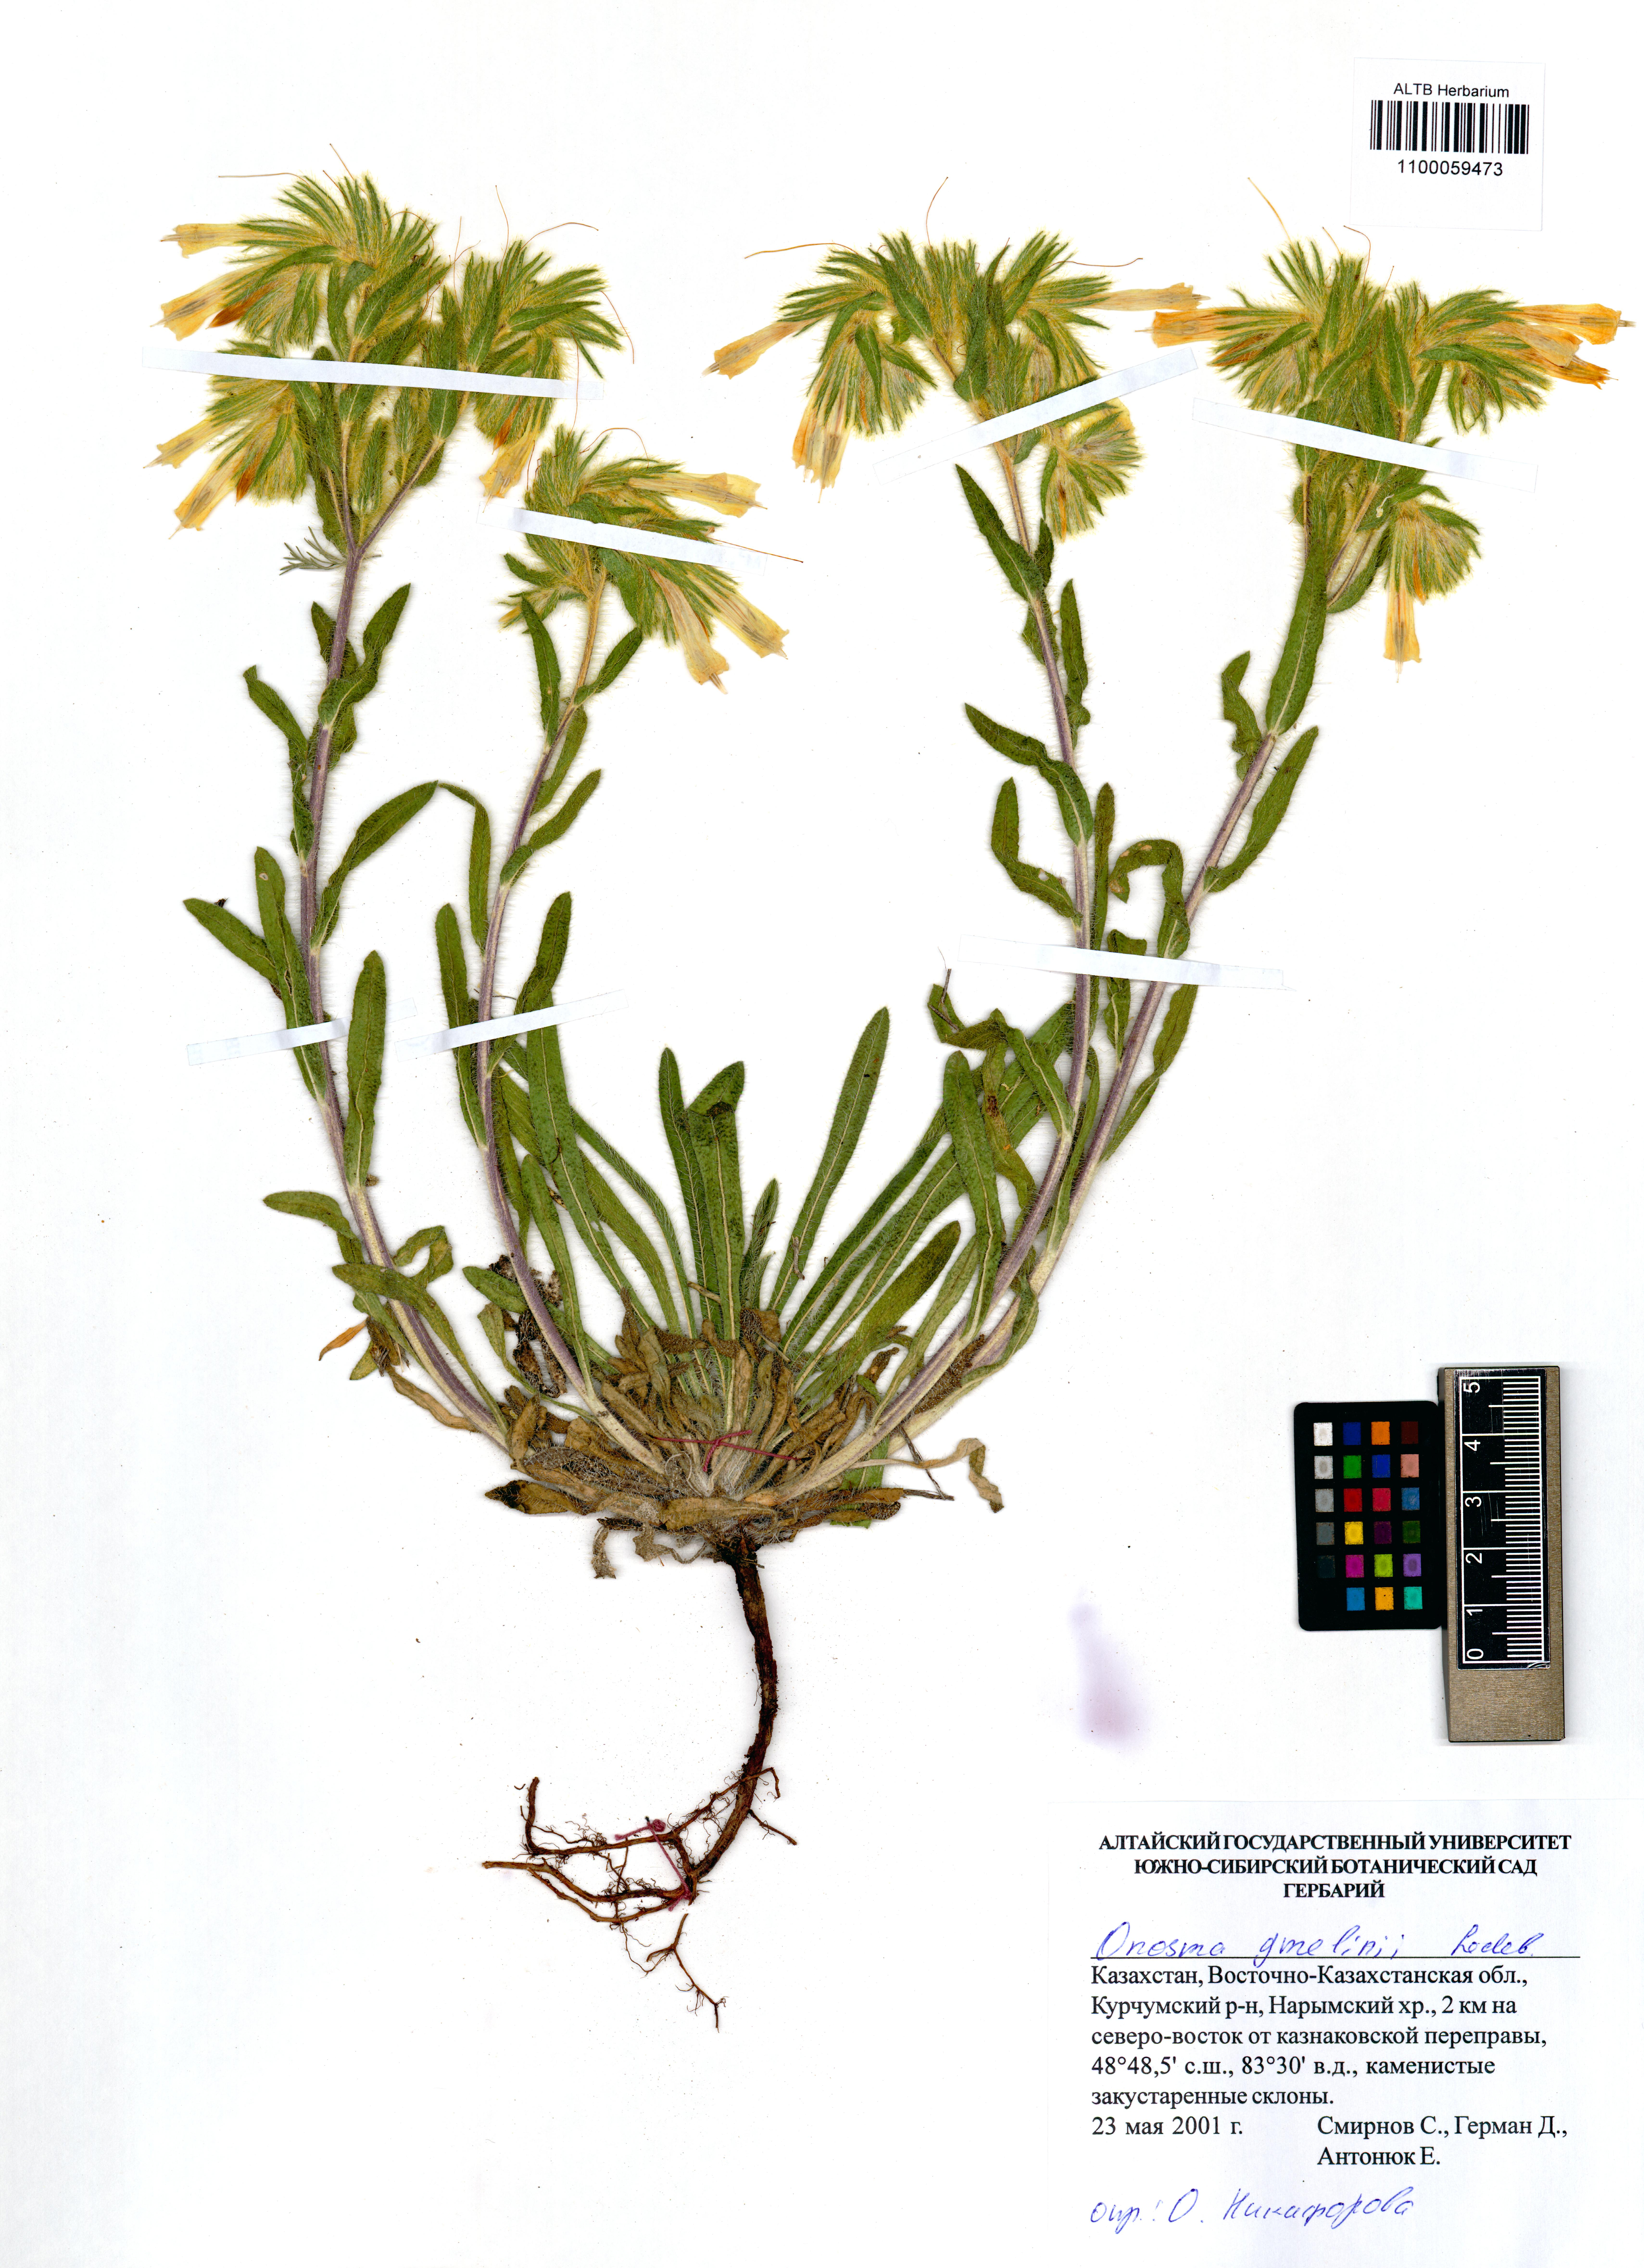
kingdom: Plantae
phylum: Tracheophyta
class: Magnoliopsida
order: Boraginales
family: Boraginaceae
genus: Onosma
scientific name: Onosma gmelinii
